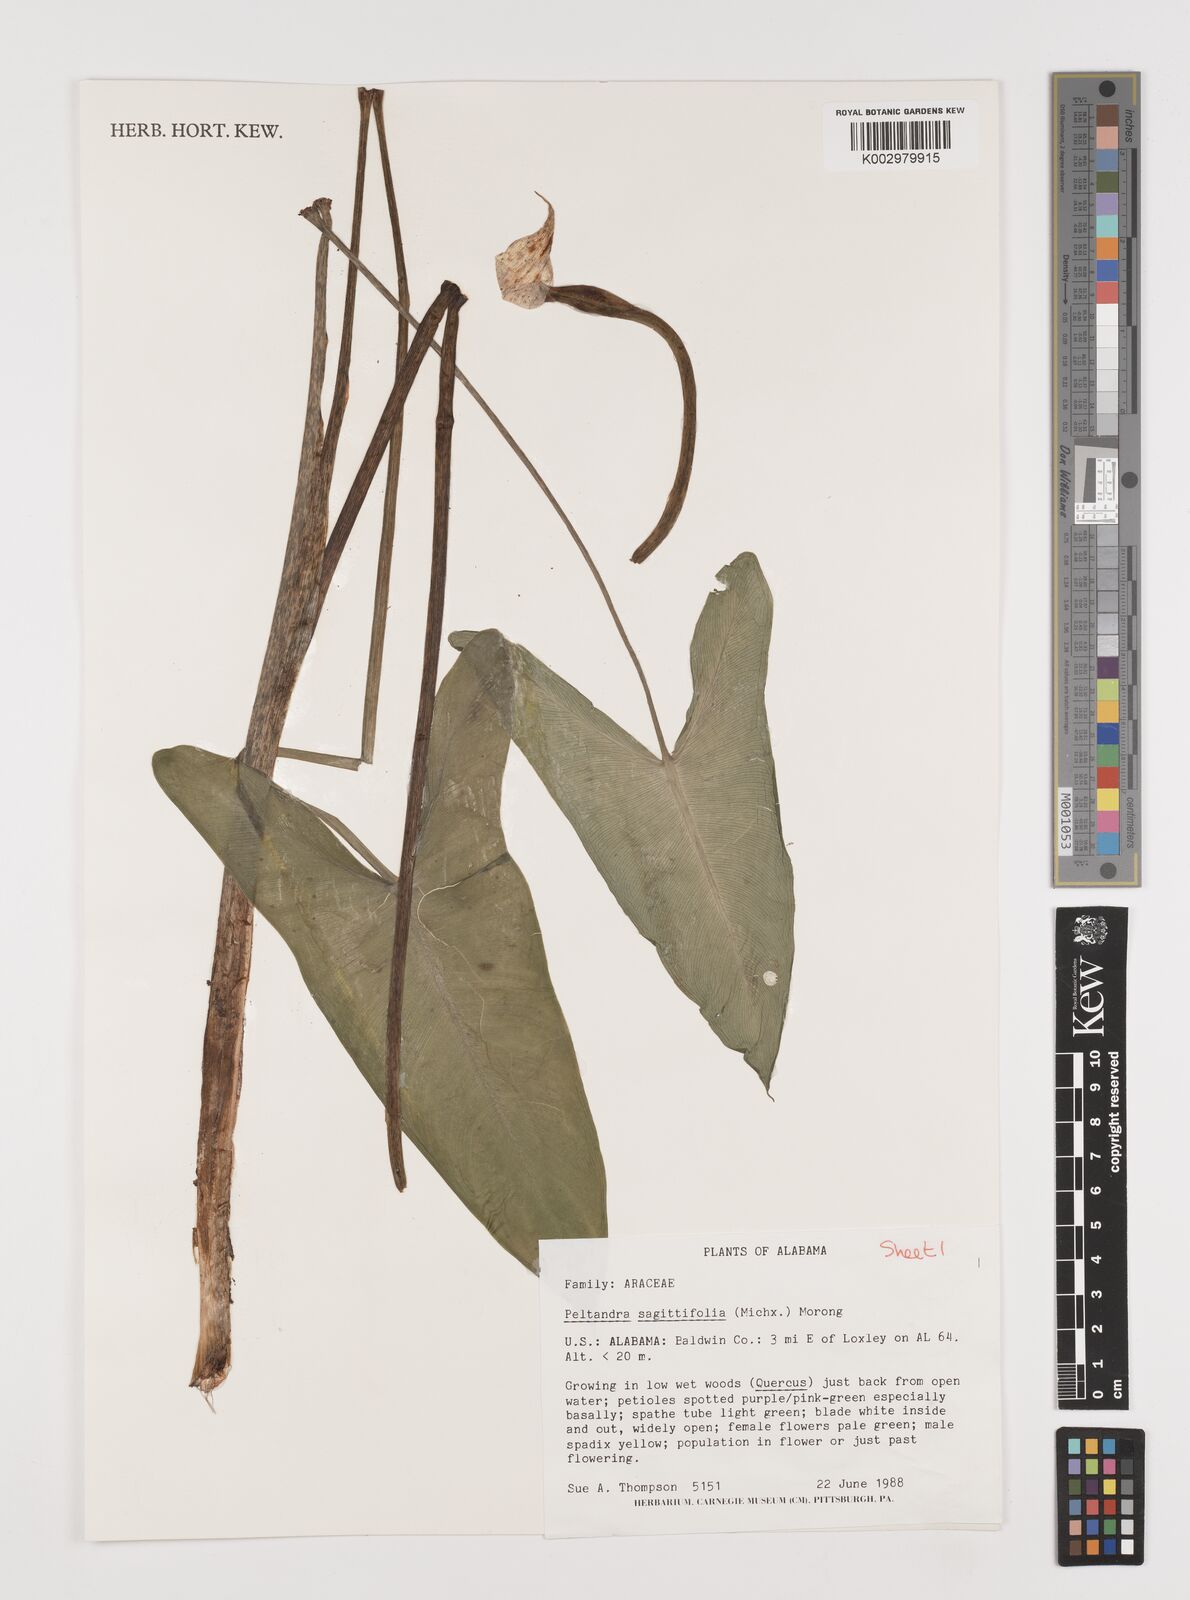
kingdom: Plantae
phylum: Tracheophyta
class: Liliopsida
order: Alismatales
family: Araceae
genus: Peltandra
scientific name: Peltandra sagittifolia
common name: White arrow arum
